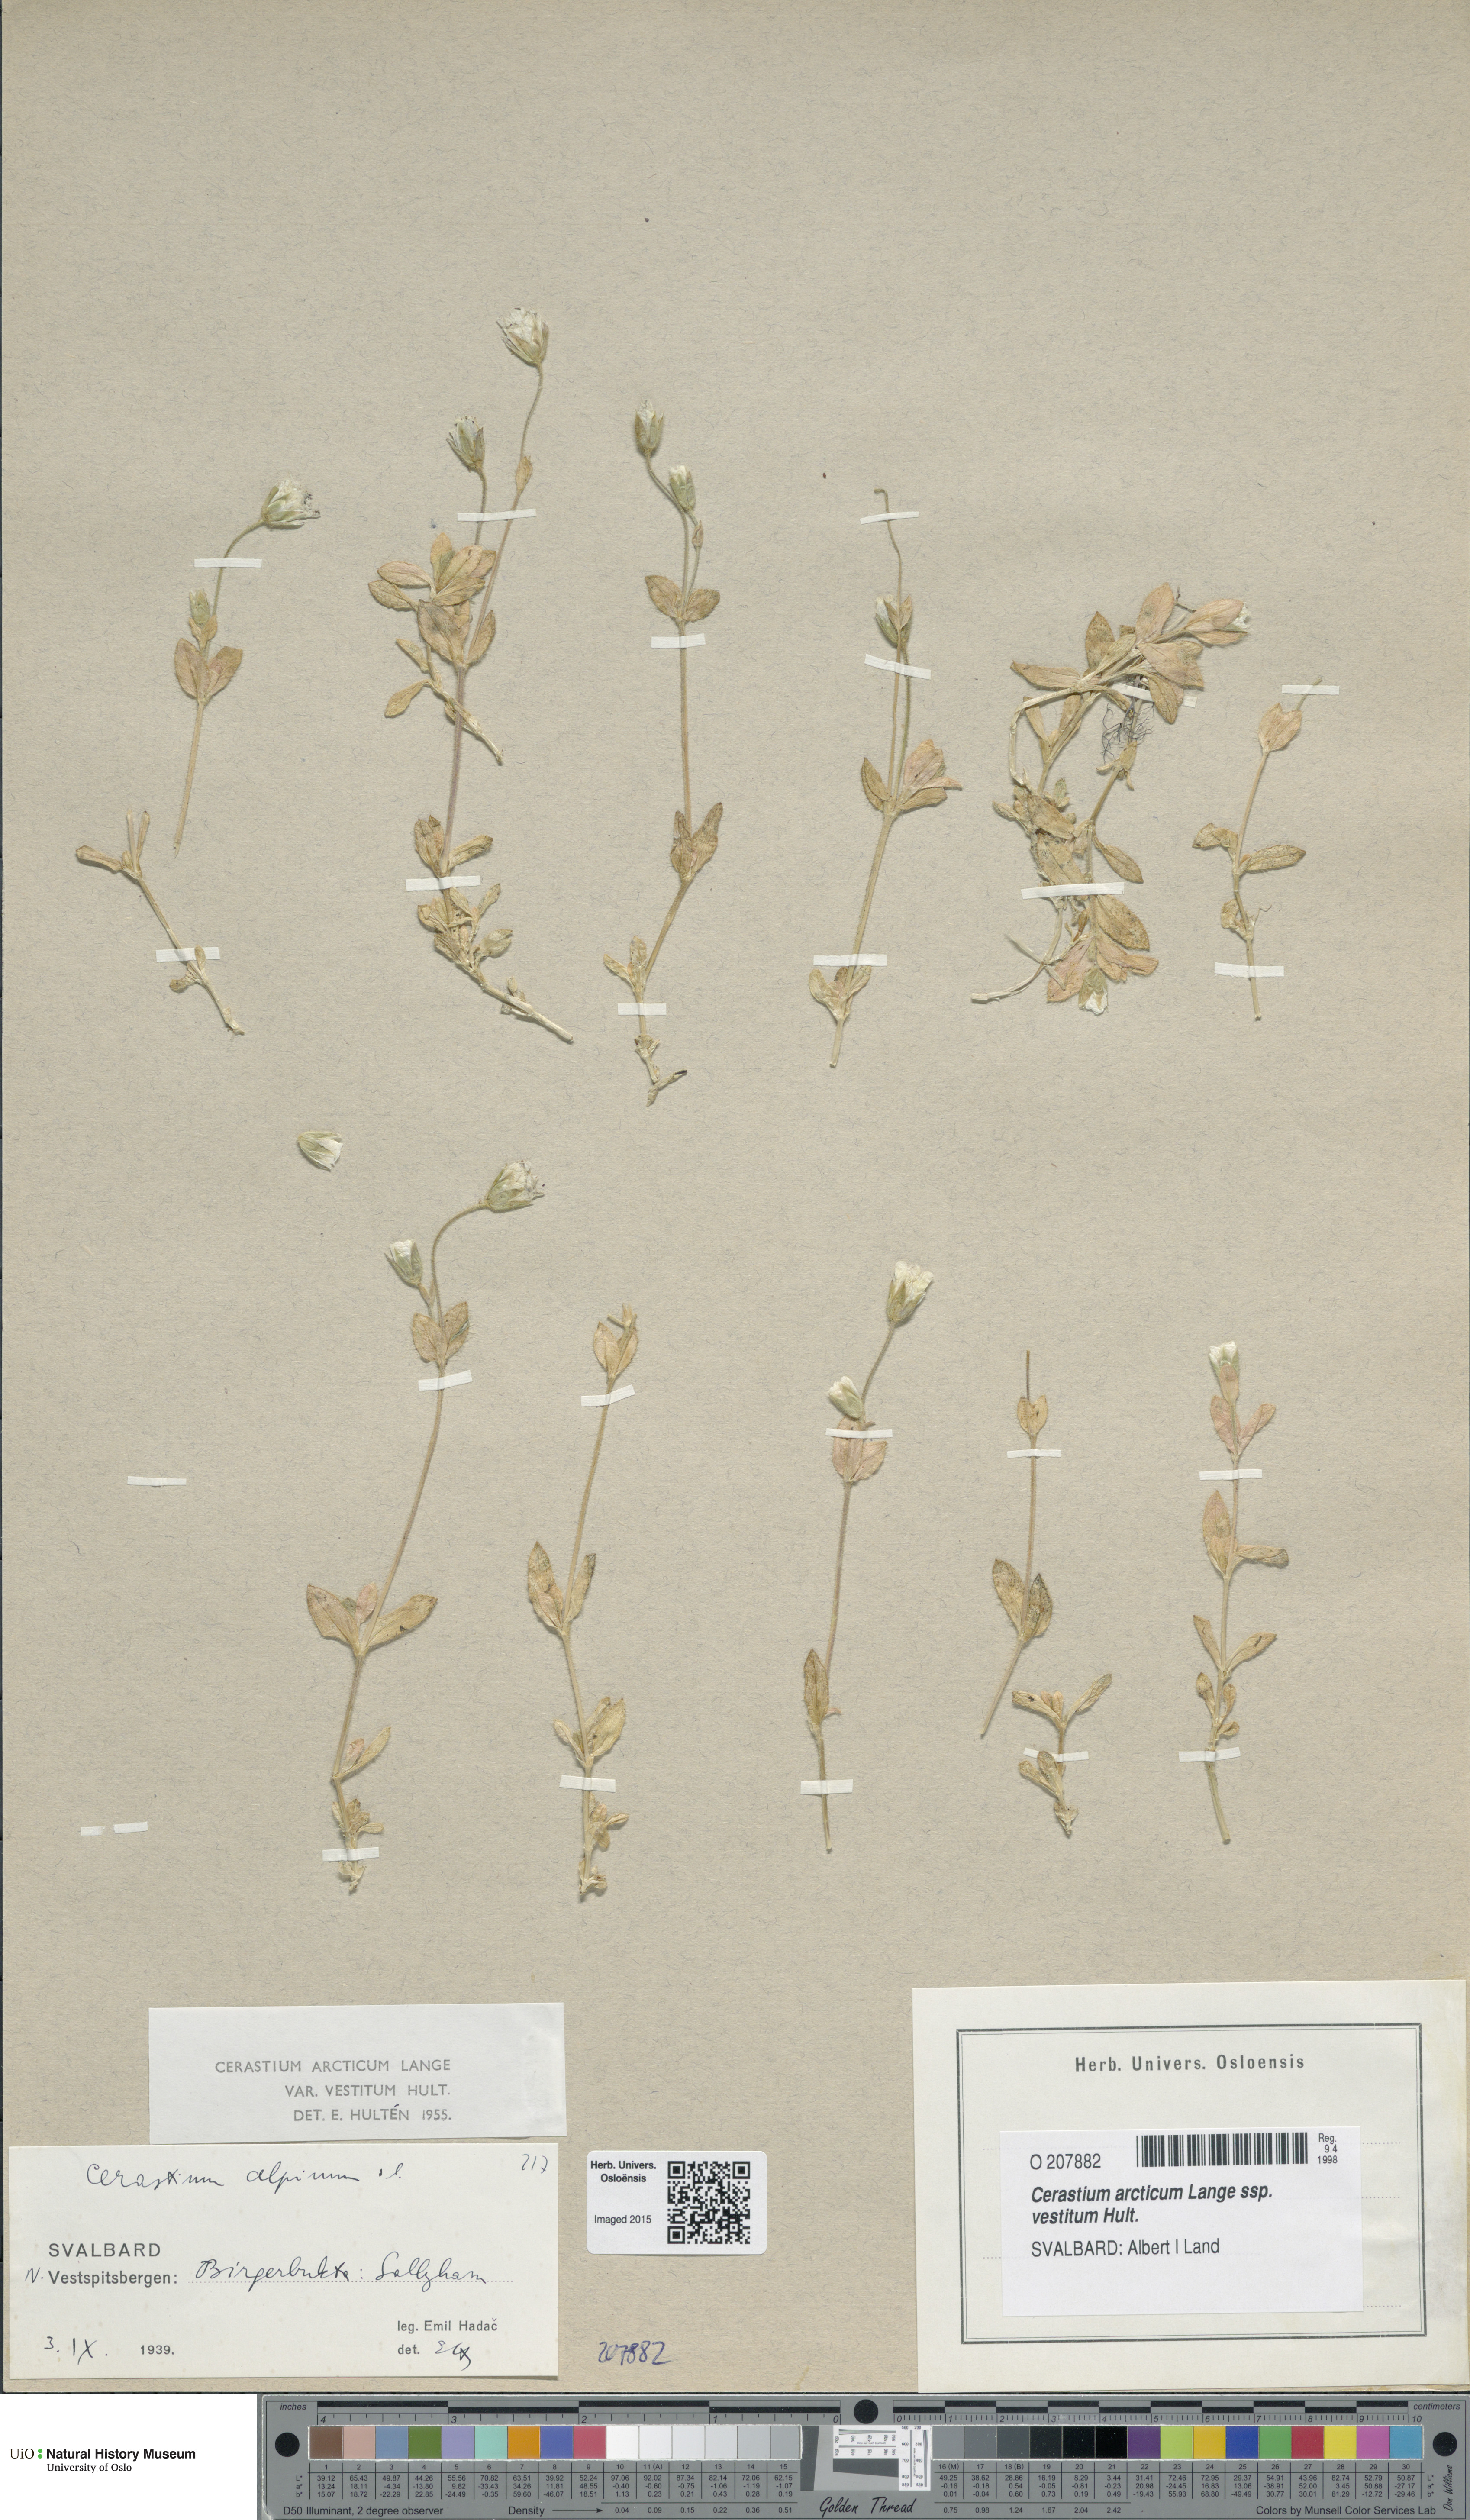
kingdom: Plantae
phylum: Tracheophyta
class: Magnoliopsida
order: Caryophyllales
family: Caryophyllaceae
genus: Cerastium
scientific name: Cerastium arcticum
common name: Arctic mouse-ear
